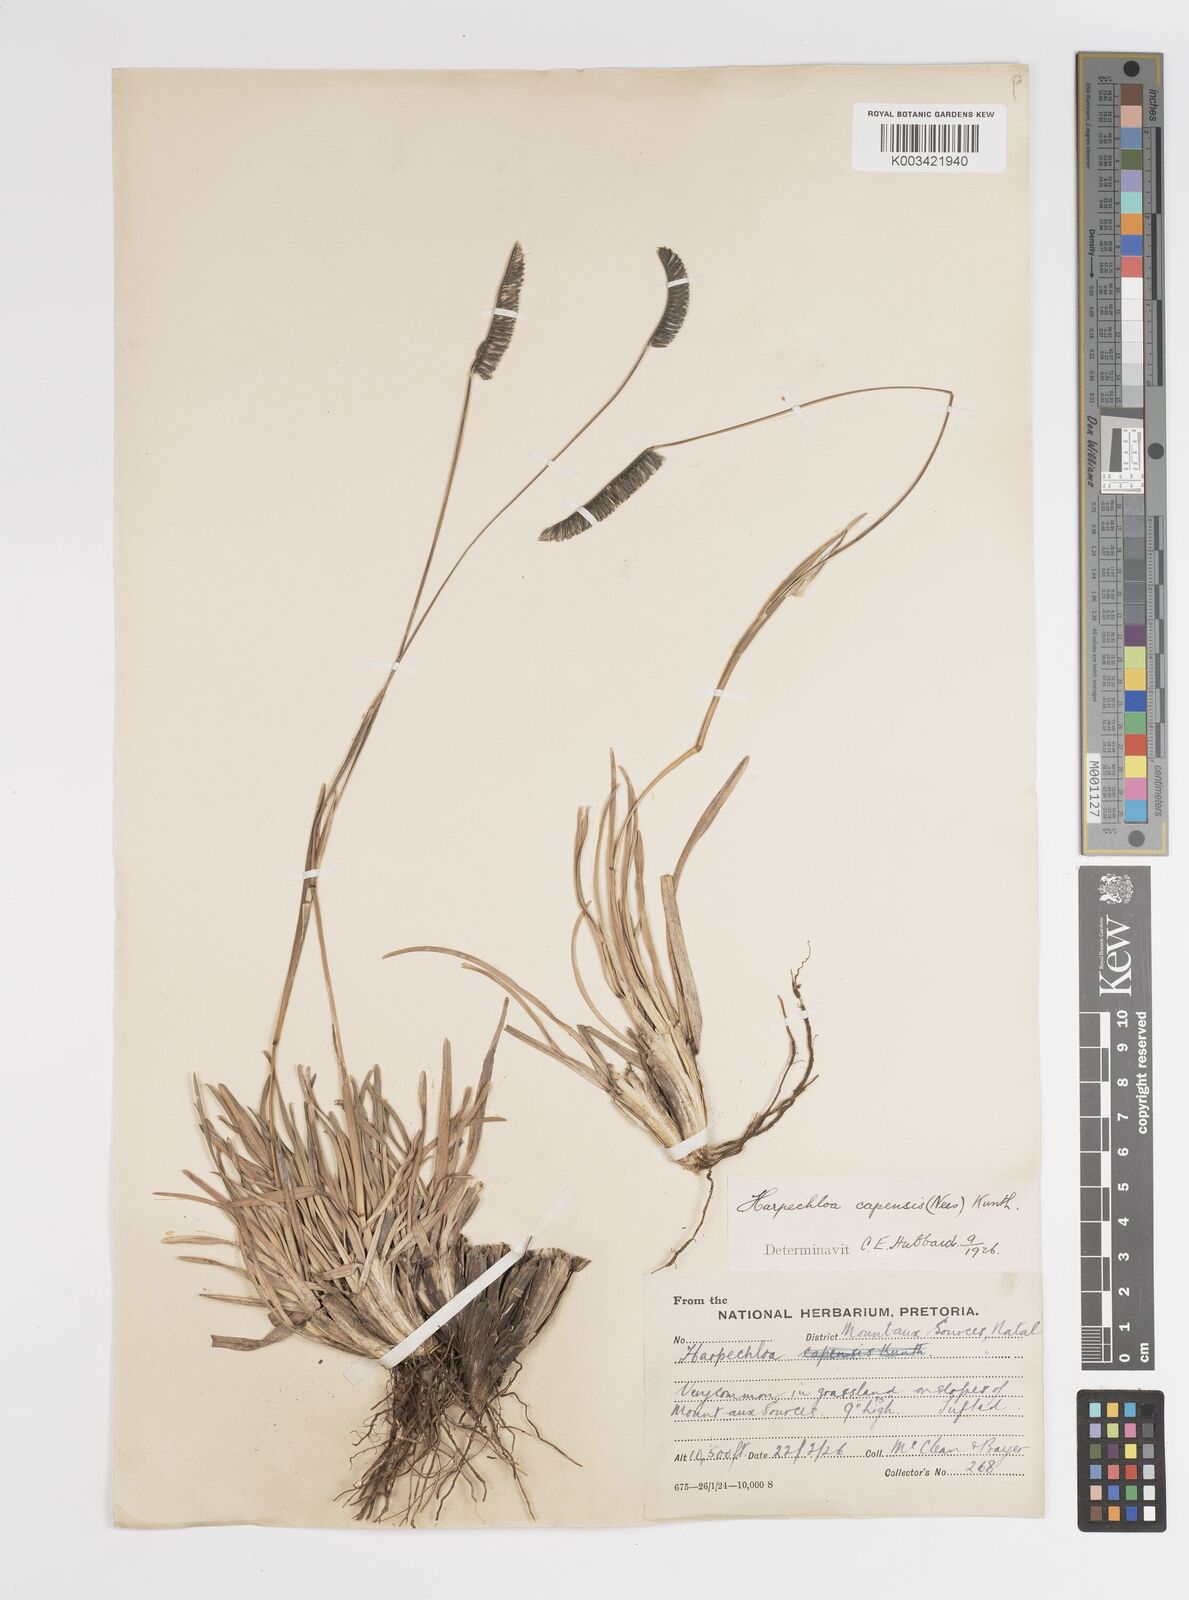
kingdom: Plantae
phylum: Tracheophyta
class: Liliopsida
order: Poales
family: Poaceae
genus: Harpochloa
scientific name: Harpochloa falx
